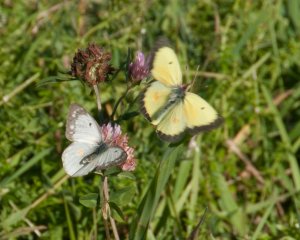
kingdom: Animalia
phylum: Arthropoda
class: Insecta
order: Lepidoptera
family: Pieridae
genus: Colias
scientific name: Colias eurytheme
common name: Orange Sulphur
